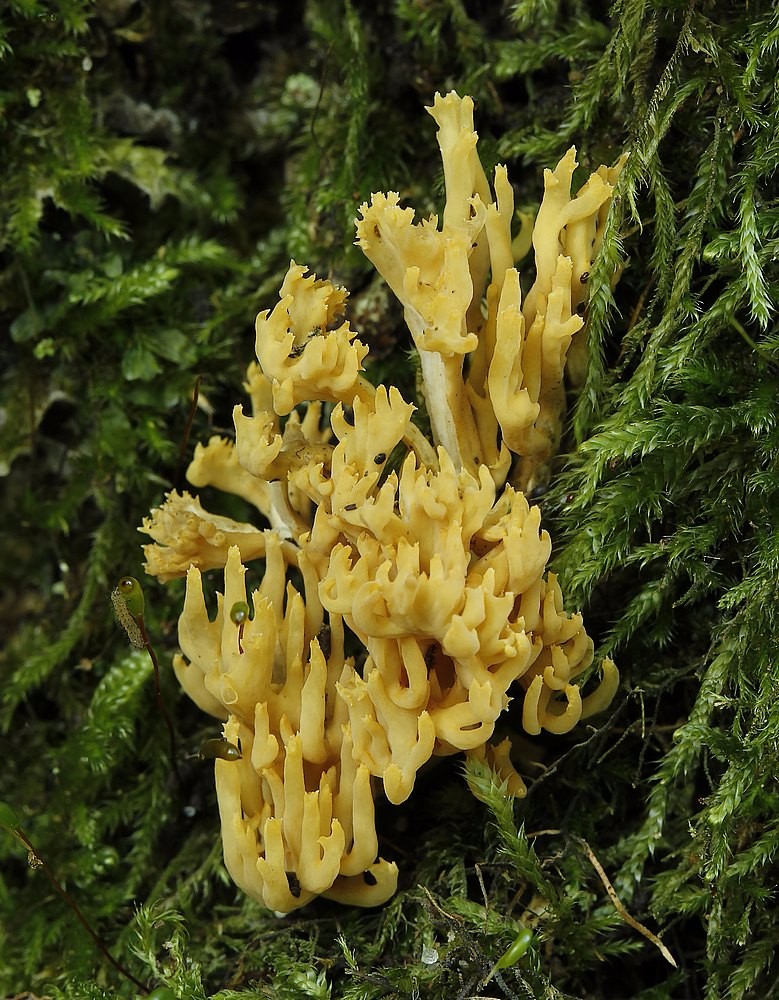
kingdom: Fungi
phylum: Basidiomycota
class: Agaricomycetes
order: Gomphales
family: Gomphaceae
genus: Ramaria
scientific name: Ramaria
